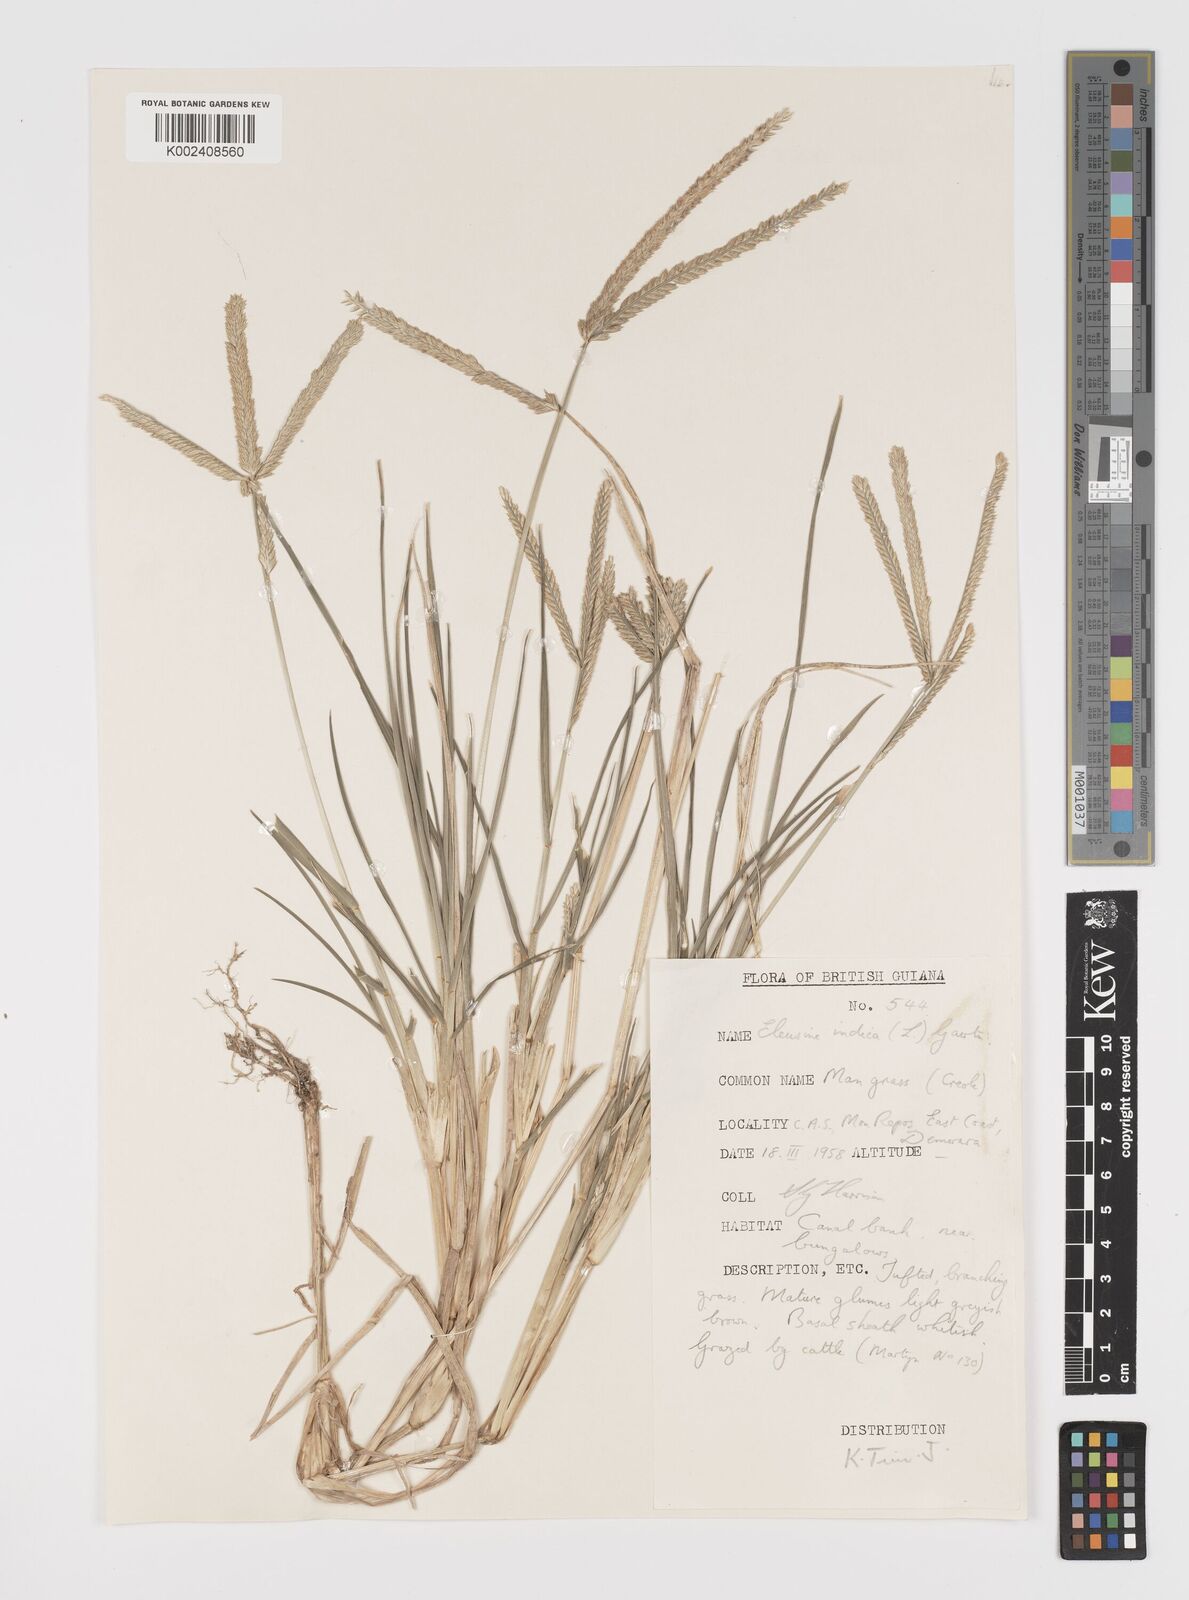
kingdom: Plantae
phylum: Tracheophyta
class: Liliopsida
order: Poales
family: Poaceae
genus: Eleusine
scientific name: Eleusine indica
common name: Yard-grass
